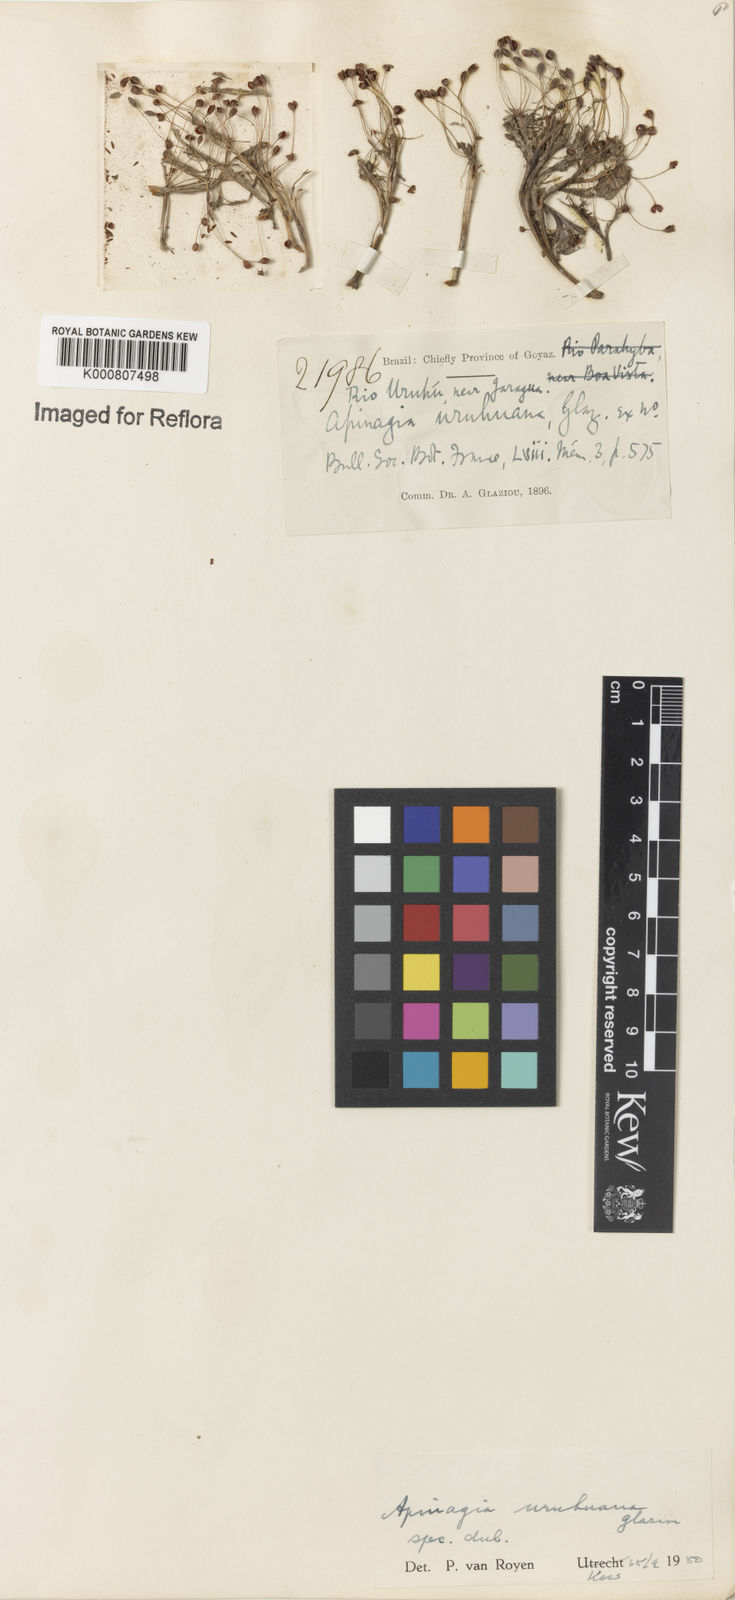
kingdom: Plantae
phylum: Tracheophyta
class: Magnoliopsida
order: Malpighiales
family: Podostemaceae
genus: Apinagia
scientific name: Apinagia
